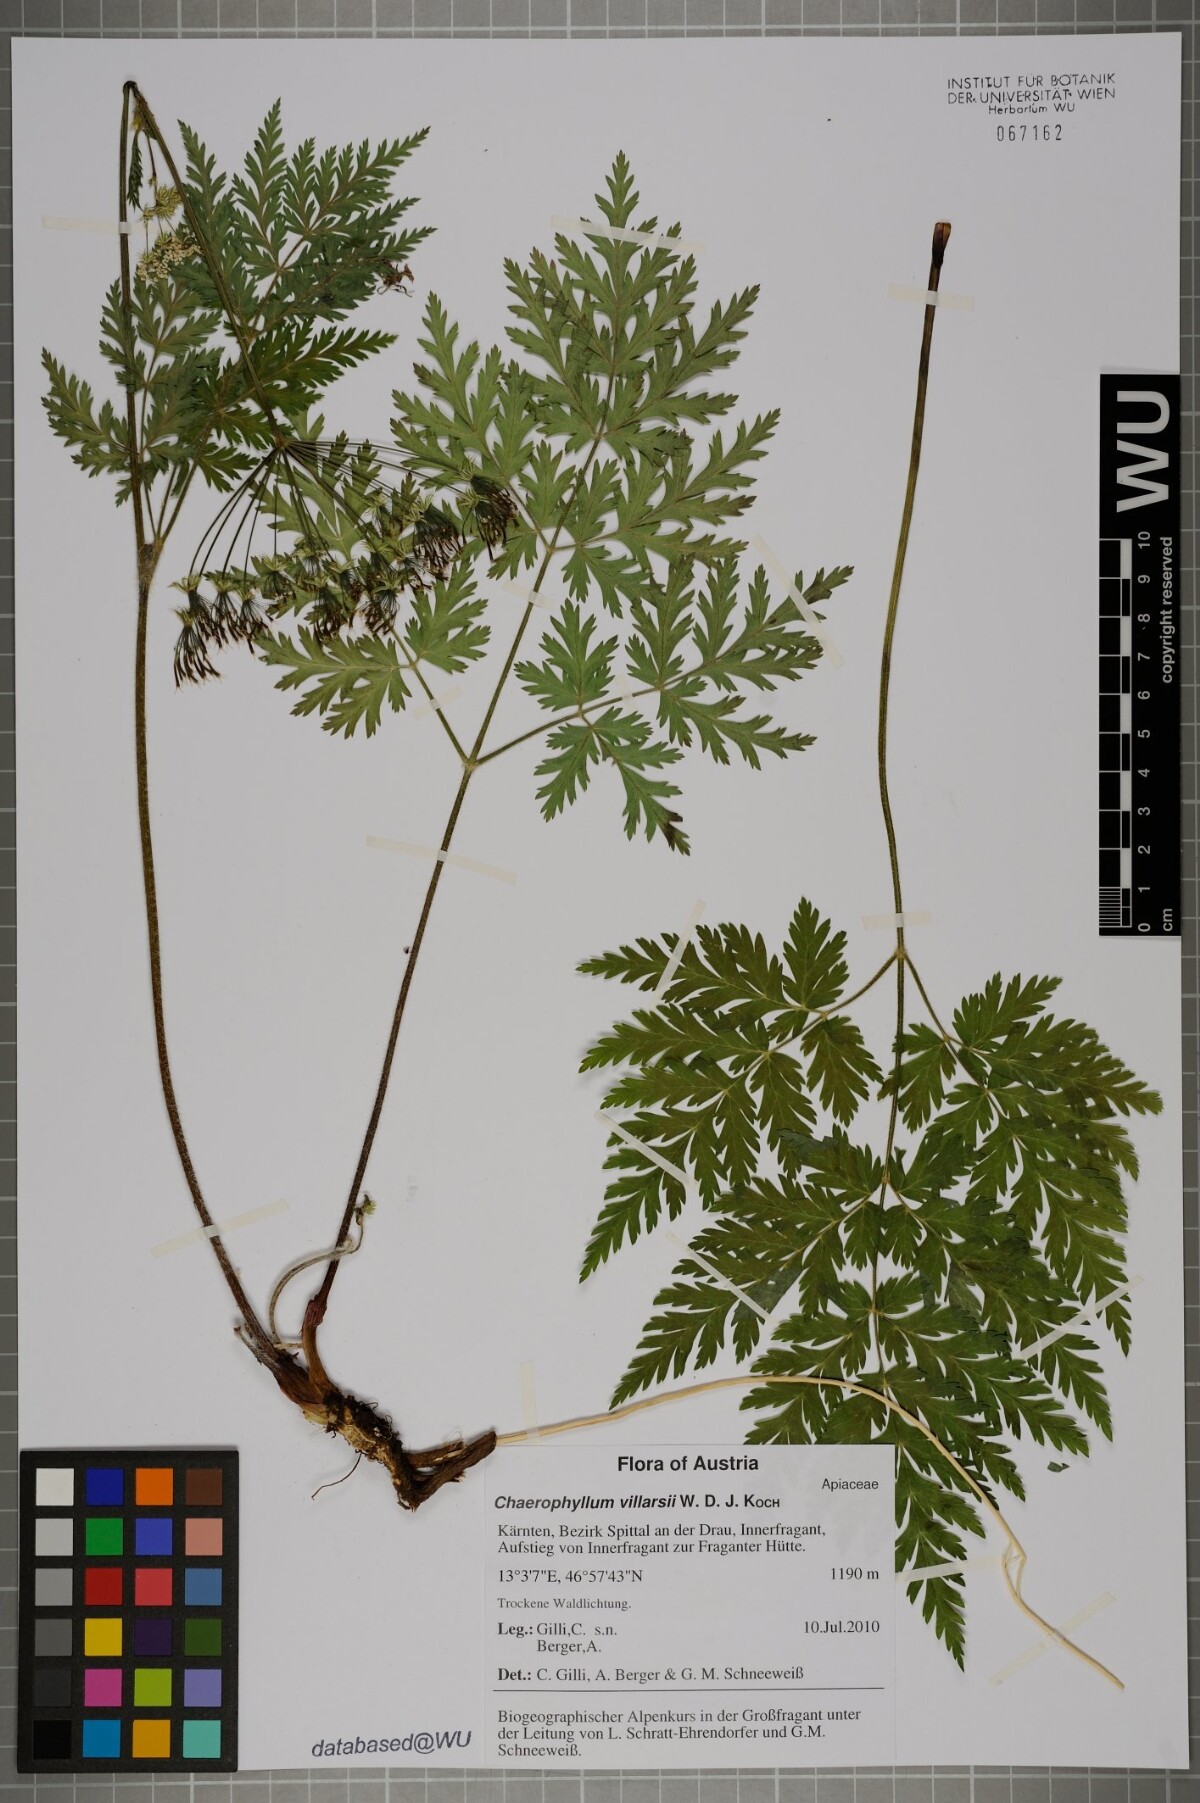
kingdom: Plantae
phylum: Tracheophyta
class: Magnoliopsida
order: Apiales
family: Apiaceae
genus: Chaerophyllum
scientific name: Chaerophyllum villarsii
